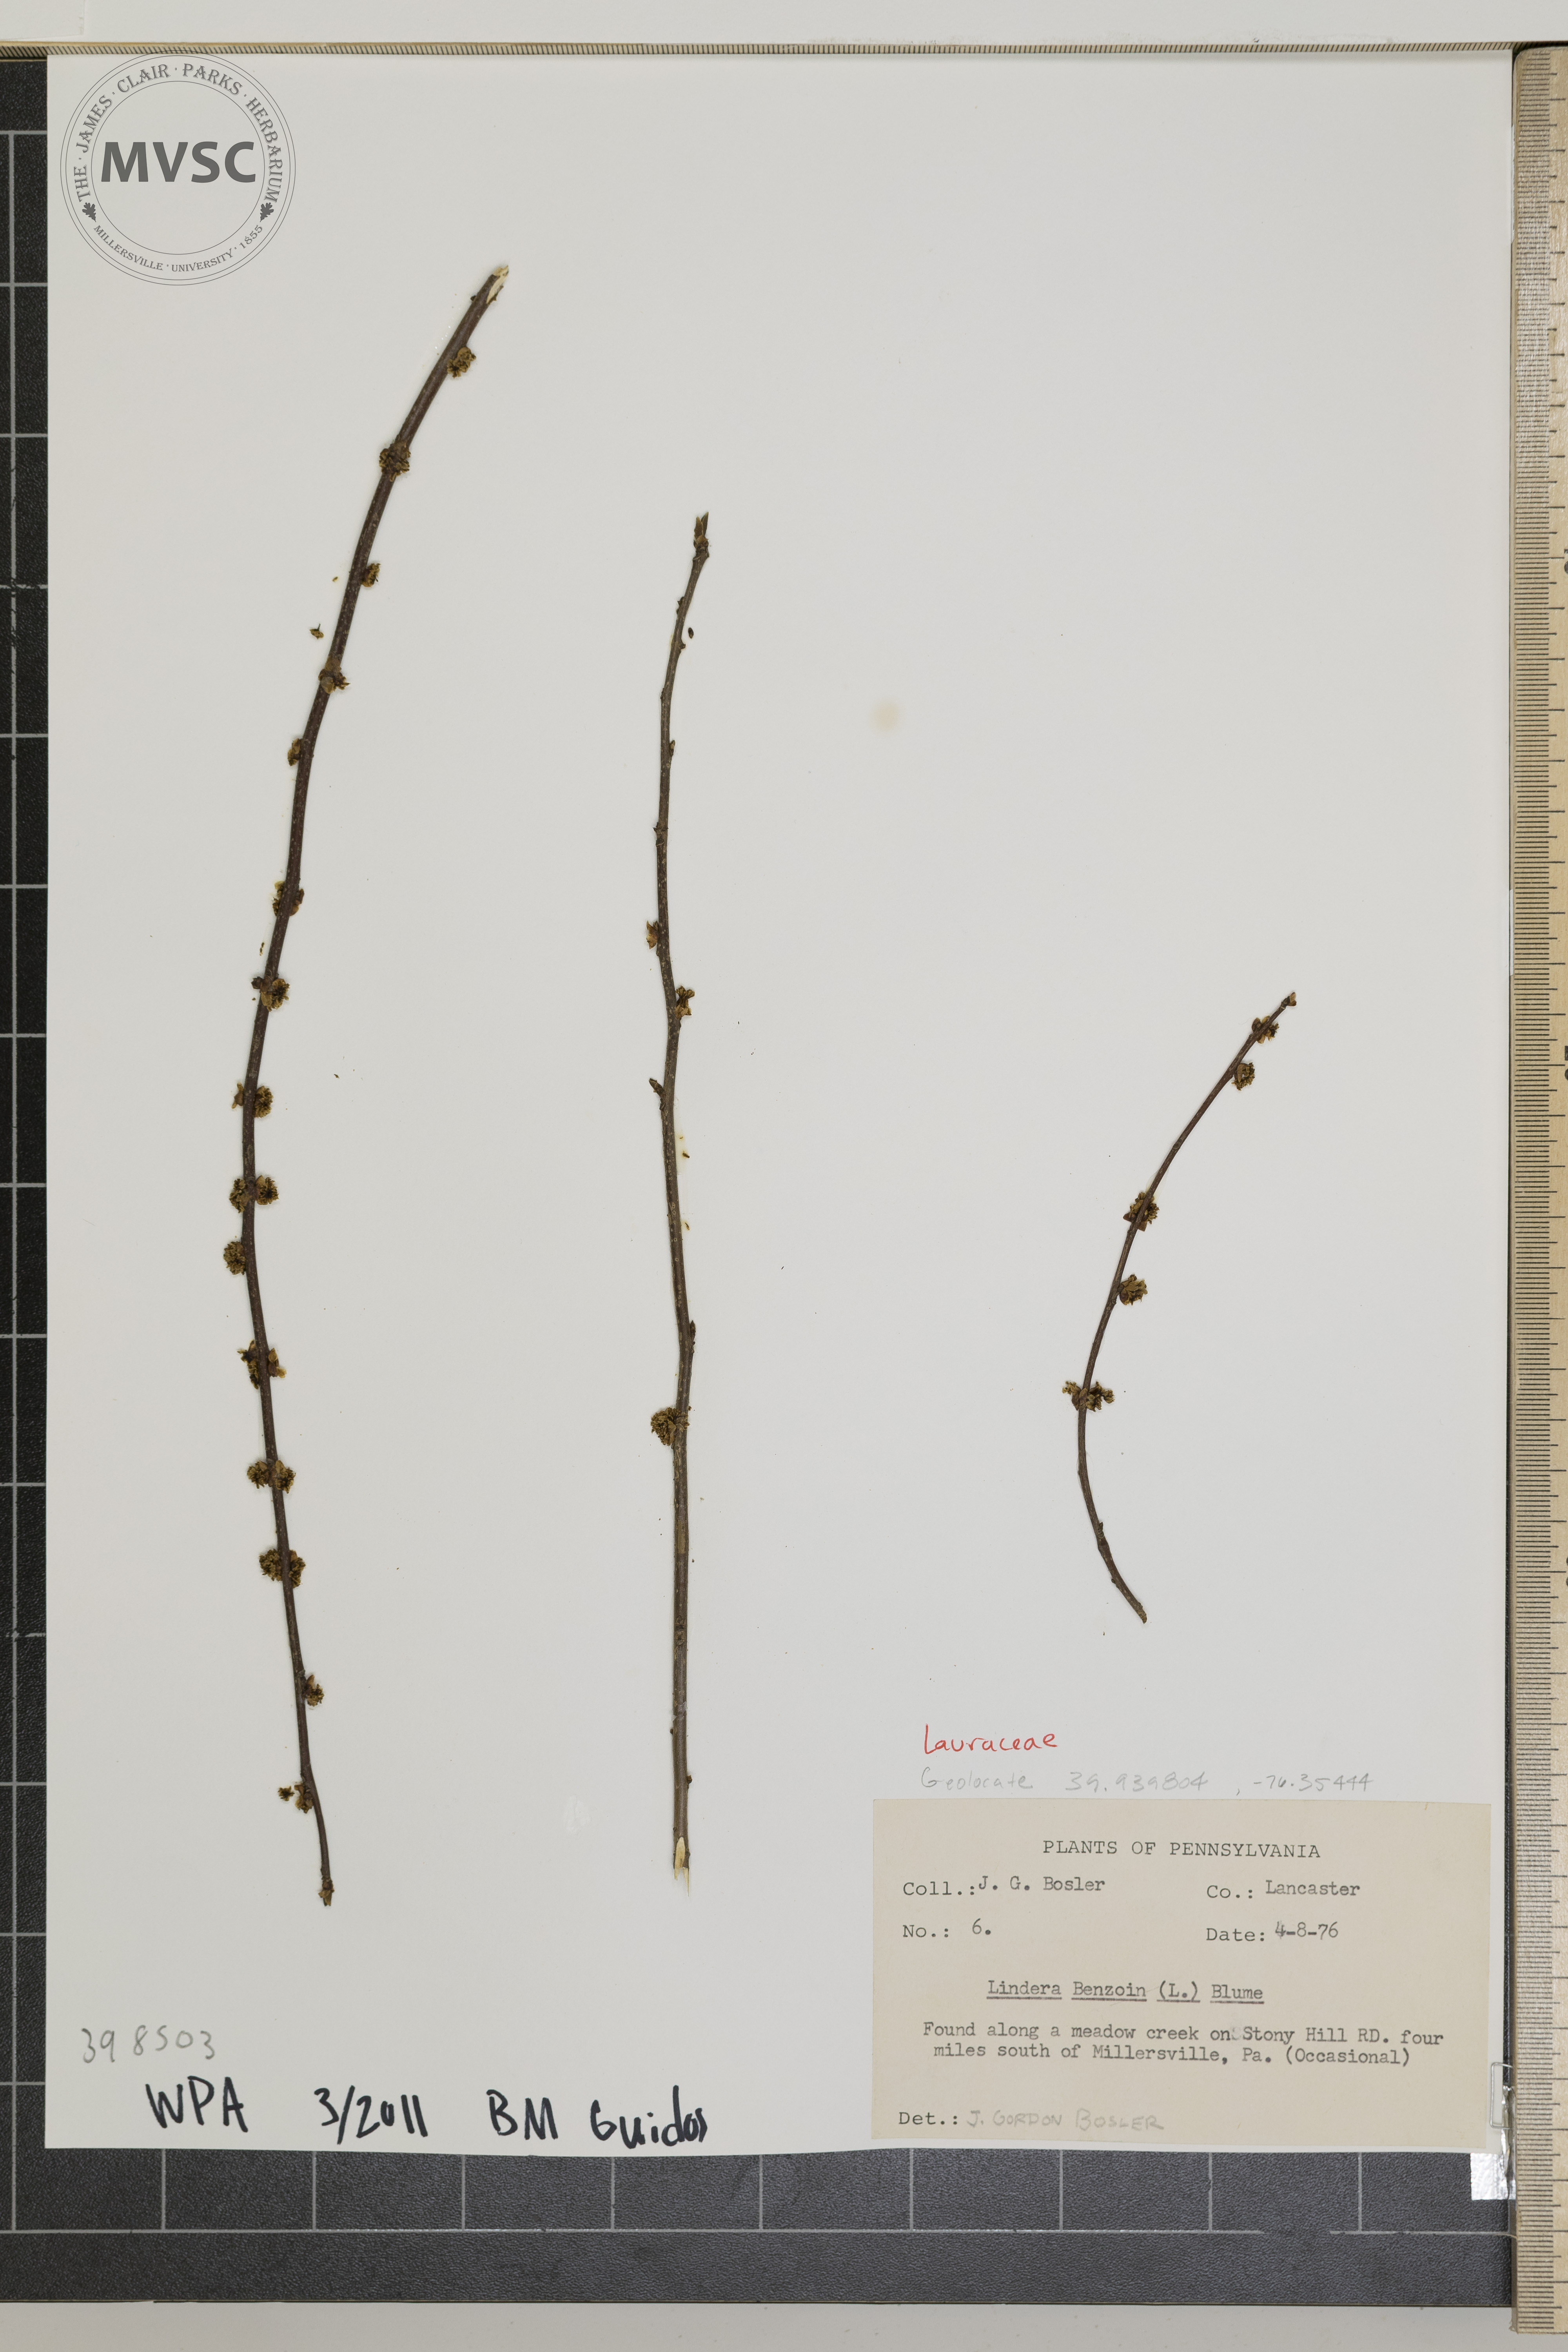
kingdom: Plantae
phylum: Tracheophyta
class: Magnoliopsida
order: Laurales
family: Lauraceae
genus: Lindera
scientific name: Lindera benzoin
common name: Spicebush
